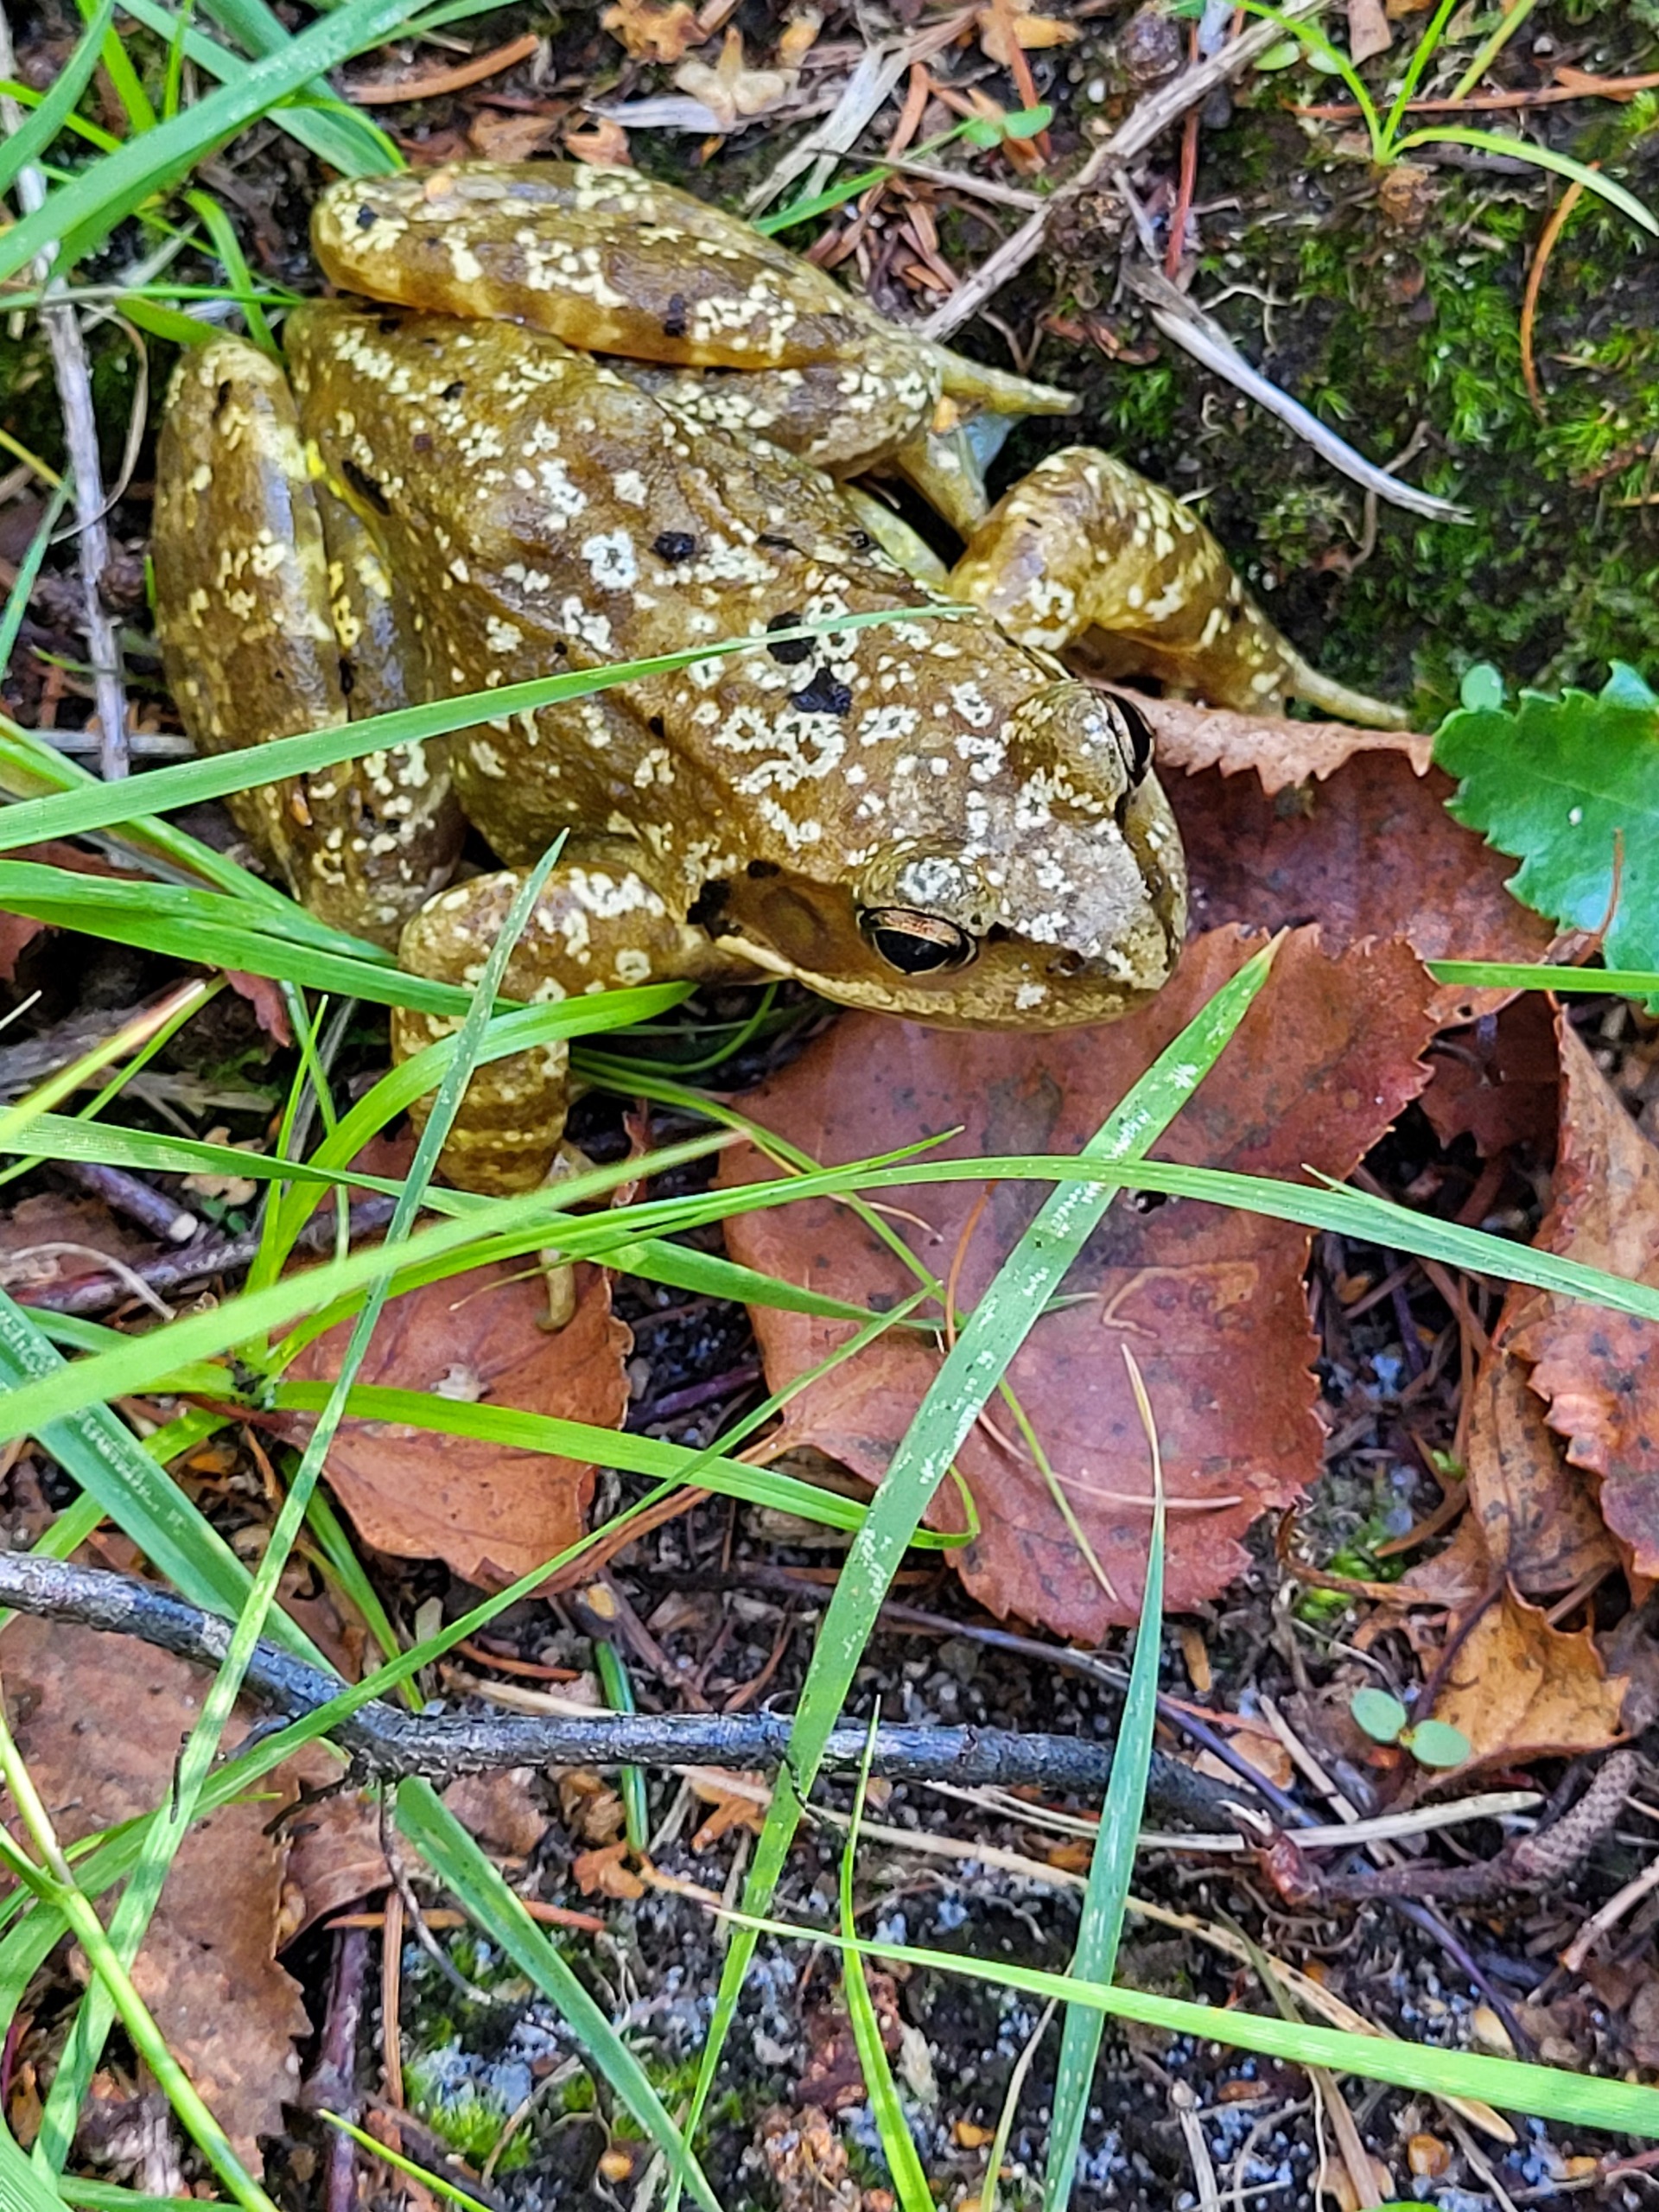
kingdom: Animalia
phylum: Chordata
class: Amphibia
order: Anura
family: Ranidae
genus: Rana
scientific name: Rana temporaria
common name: Butsnudet frø
